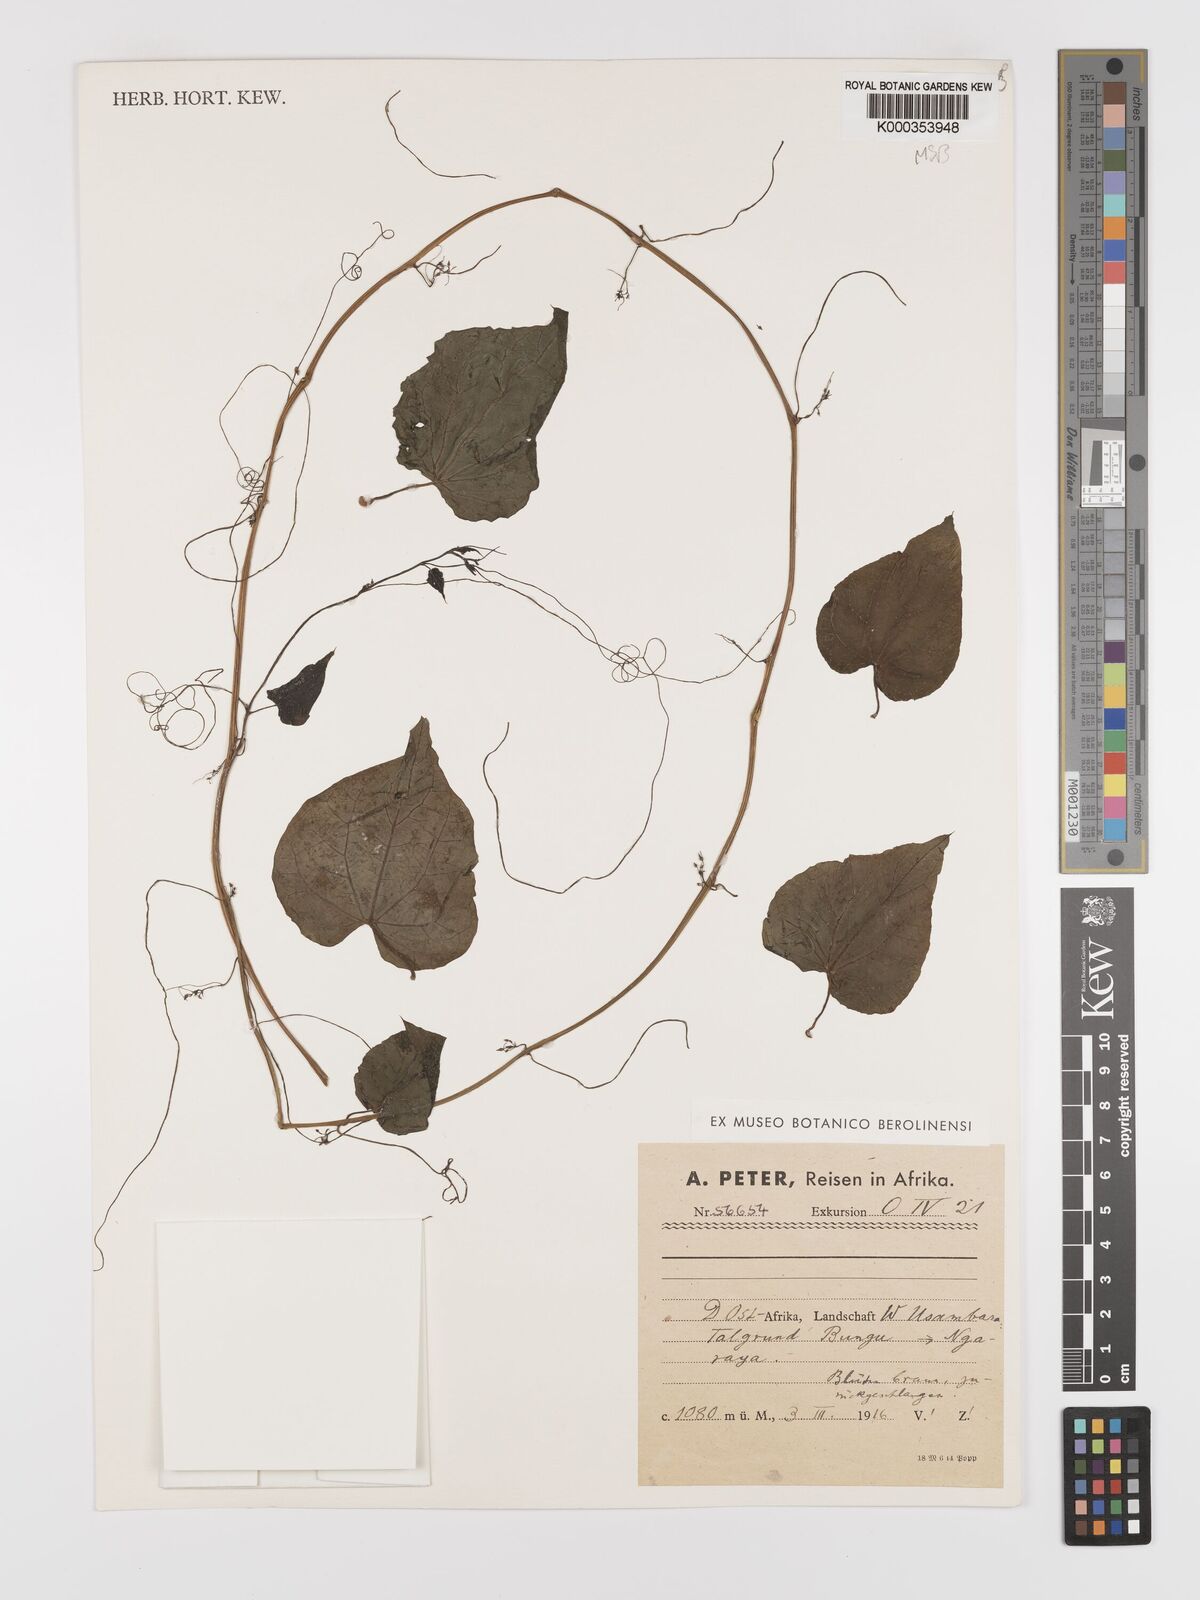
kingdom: Plantae
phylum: Tracheophyta
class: Magnoliopsida
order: Cucurbitales
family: Cucurbitaceae
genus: Gerrardanthus
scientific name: Gerrardanthus
